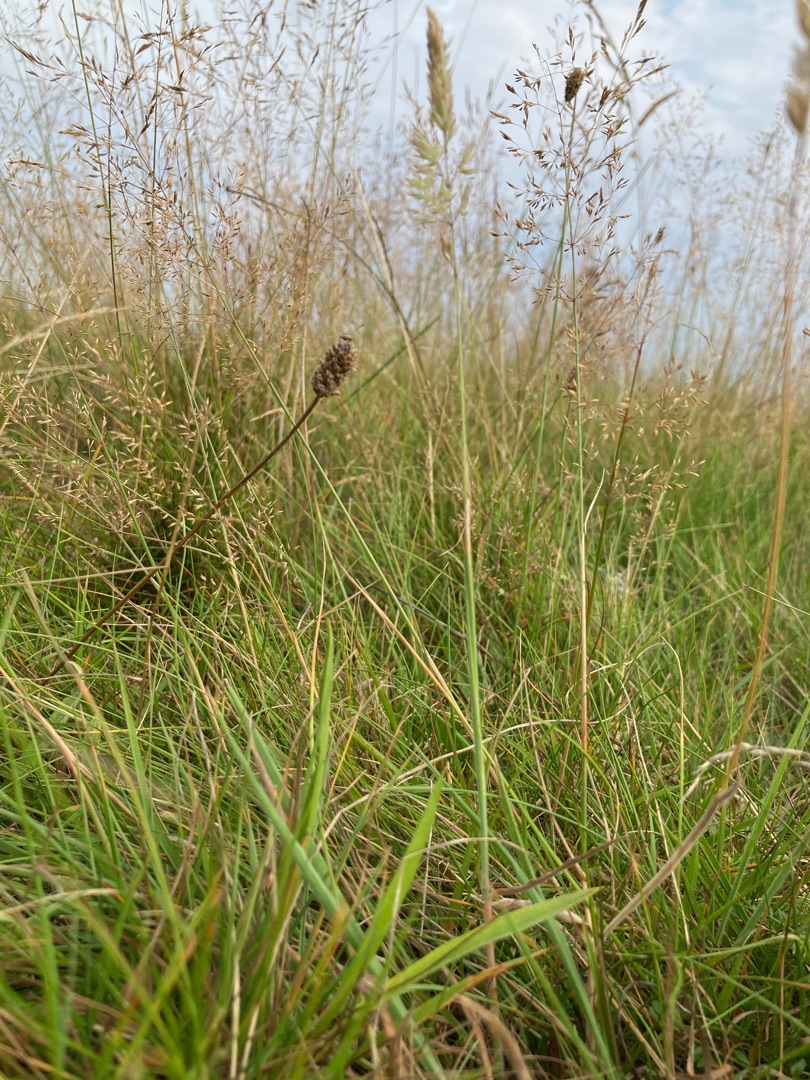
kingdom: Plantae
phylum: Tracheophyta
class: Liliopsida
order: Poales
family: Poaceae
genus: Holcus
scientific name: Holcus lanatus
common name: Fløjlsgræs
